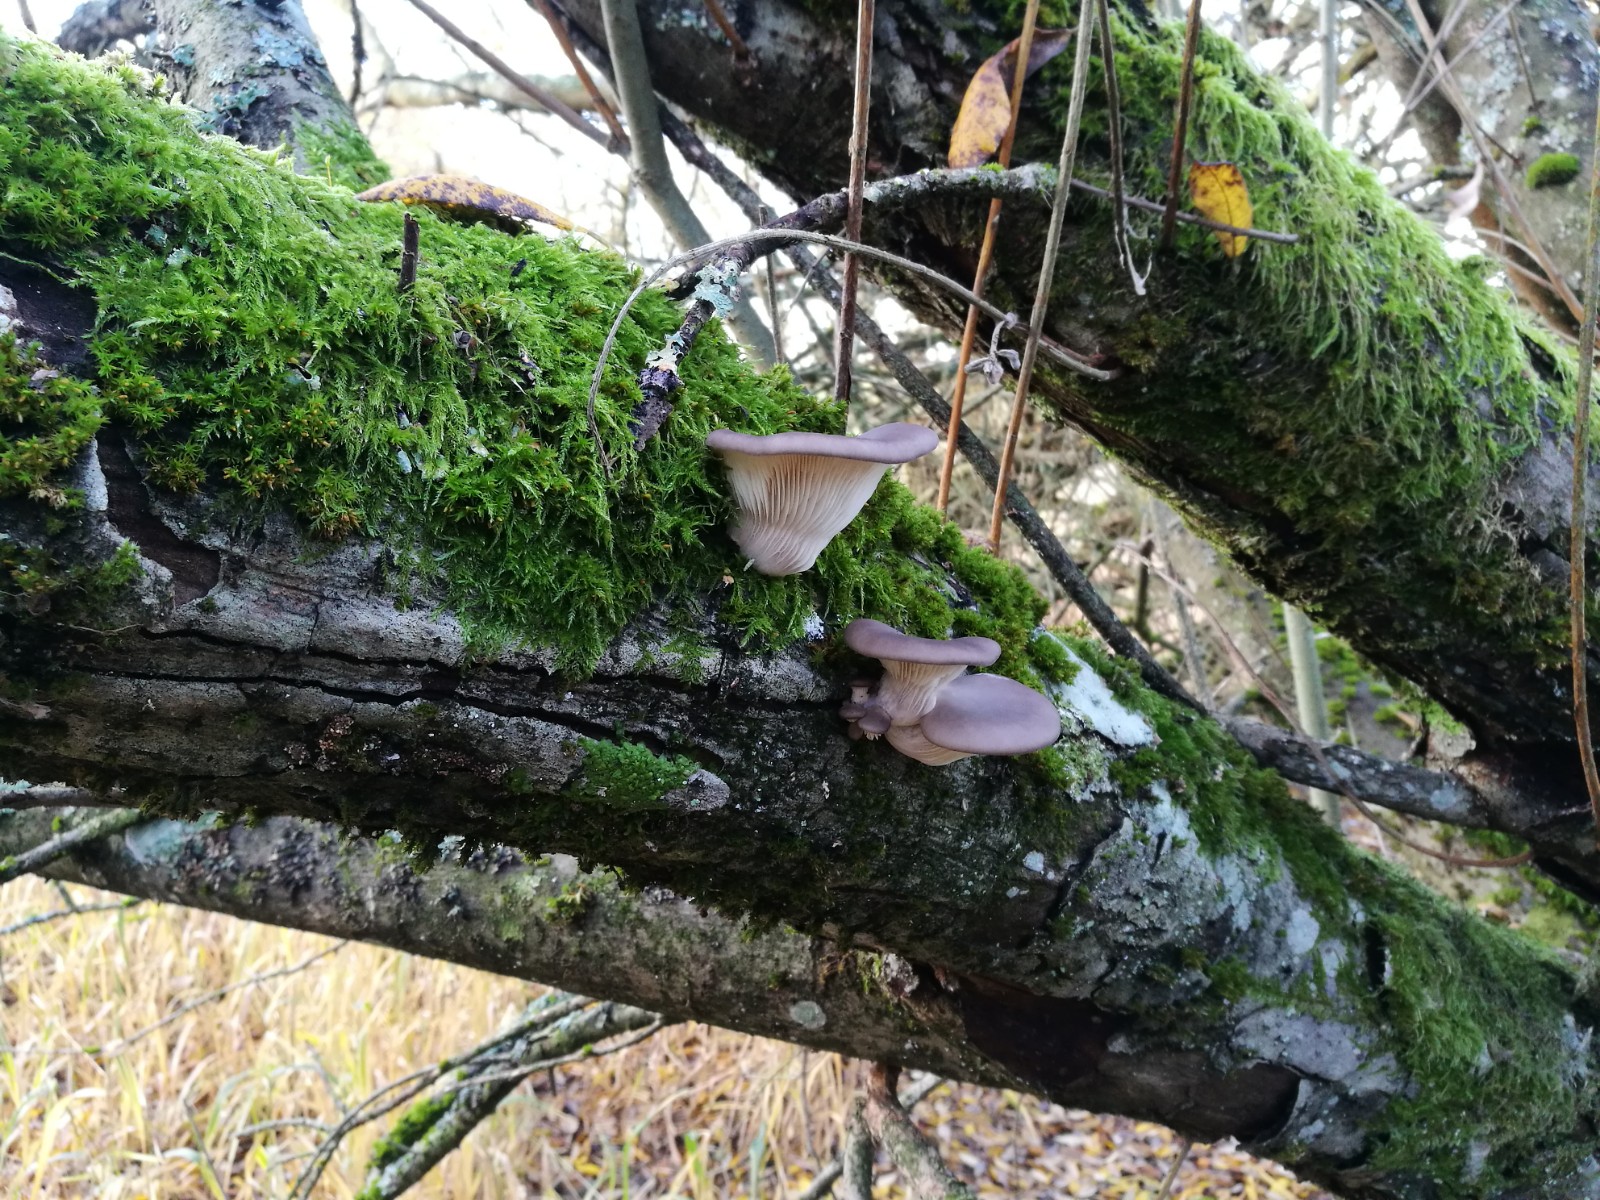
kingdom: Fungi
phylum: Basidiomycota
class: Agaricomycetes
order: Agaricales
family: Pleurotaceae
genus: Pleurotus
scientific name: Pleurotus ostreatus
